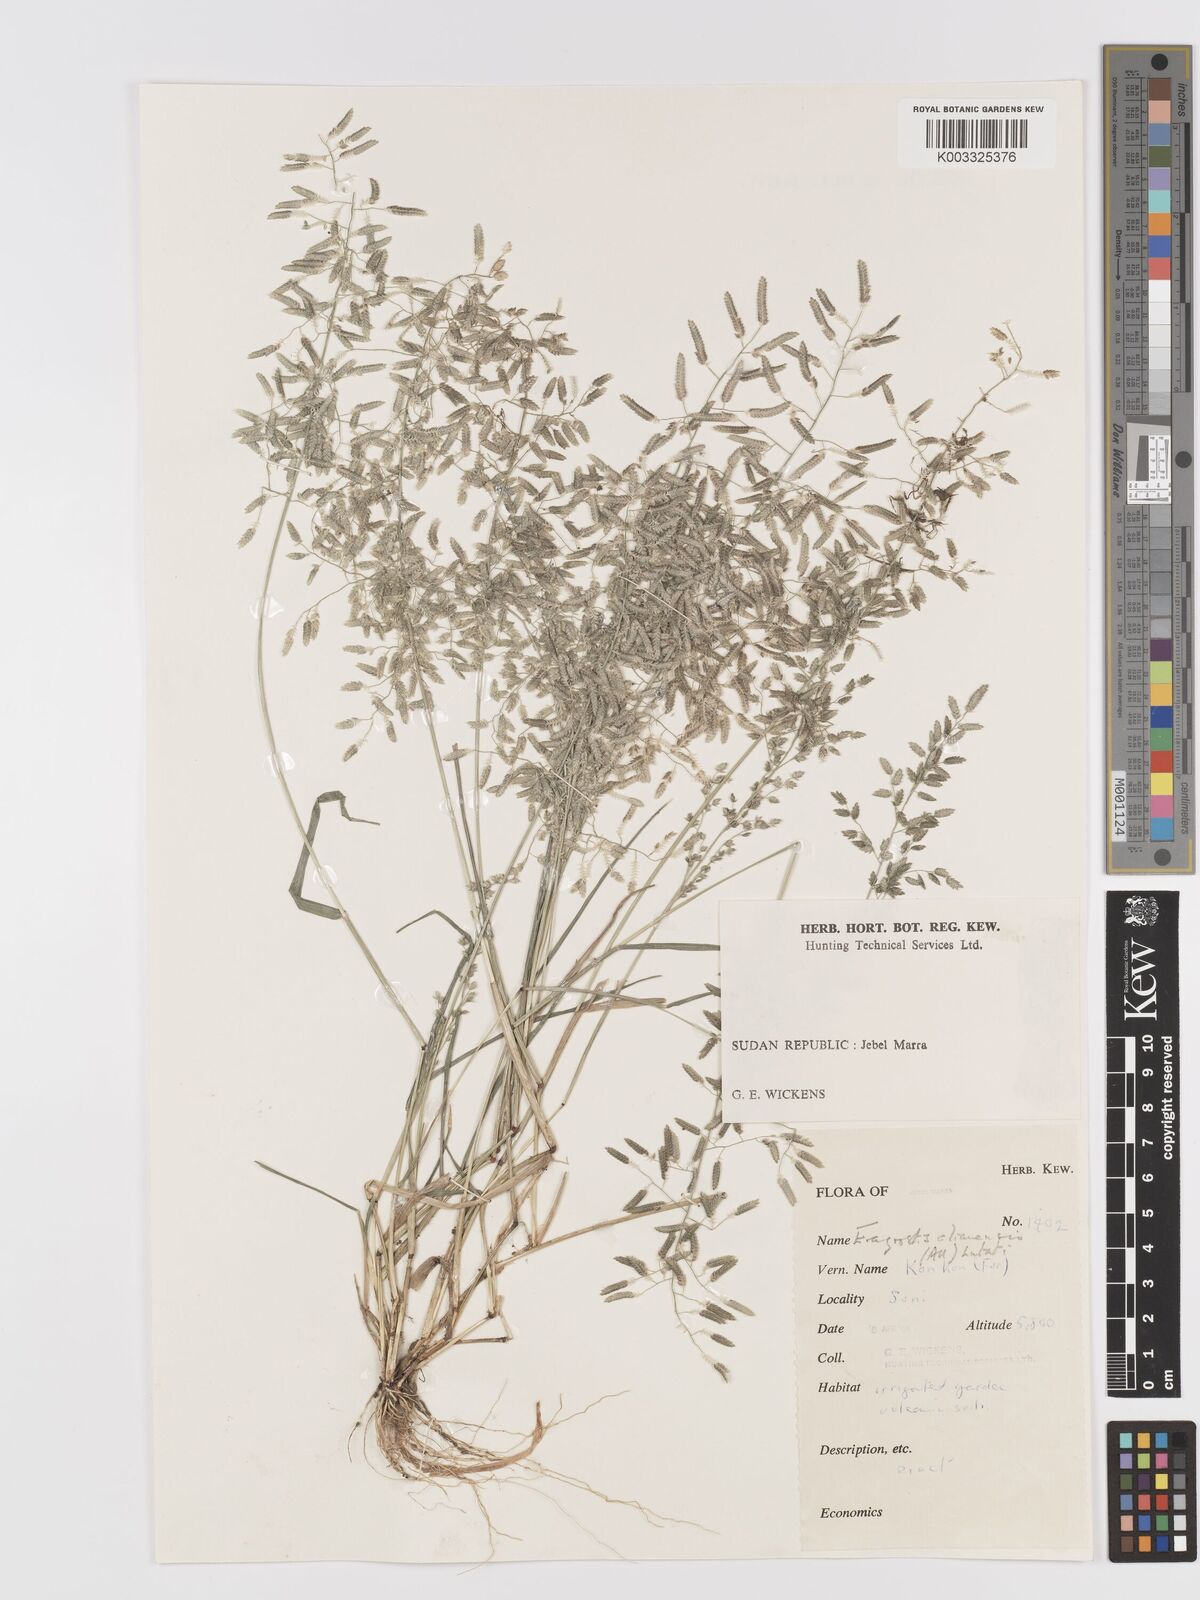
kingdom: Plantae
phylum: Tracheophyta
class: Liliopsida
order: Poales
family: Poaceae
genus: Eragrostis
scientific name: Eragrostis cilianensis
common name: Stinkgrass
